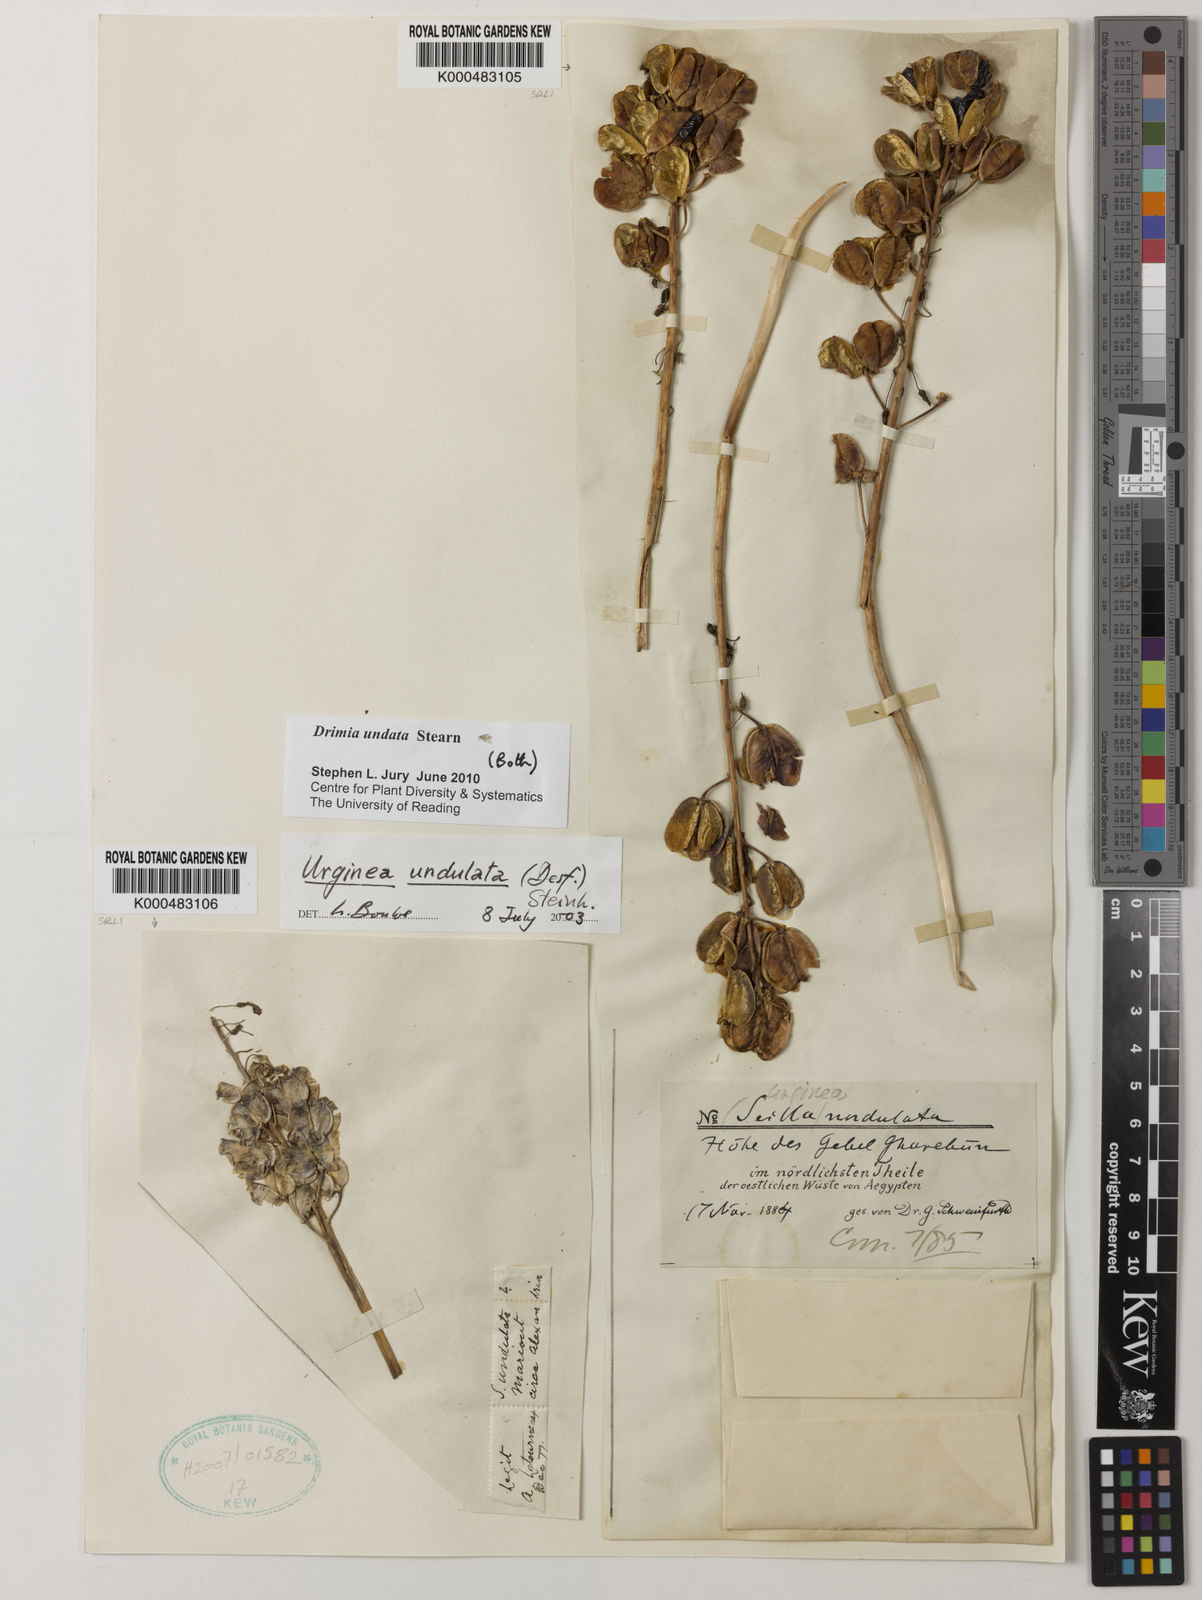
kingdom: Plantae
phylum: Tracheophyta
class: Liliopsida
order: Asparagales
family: Asparagaceae
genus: Drimia
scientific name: Drimia purpurascens
